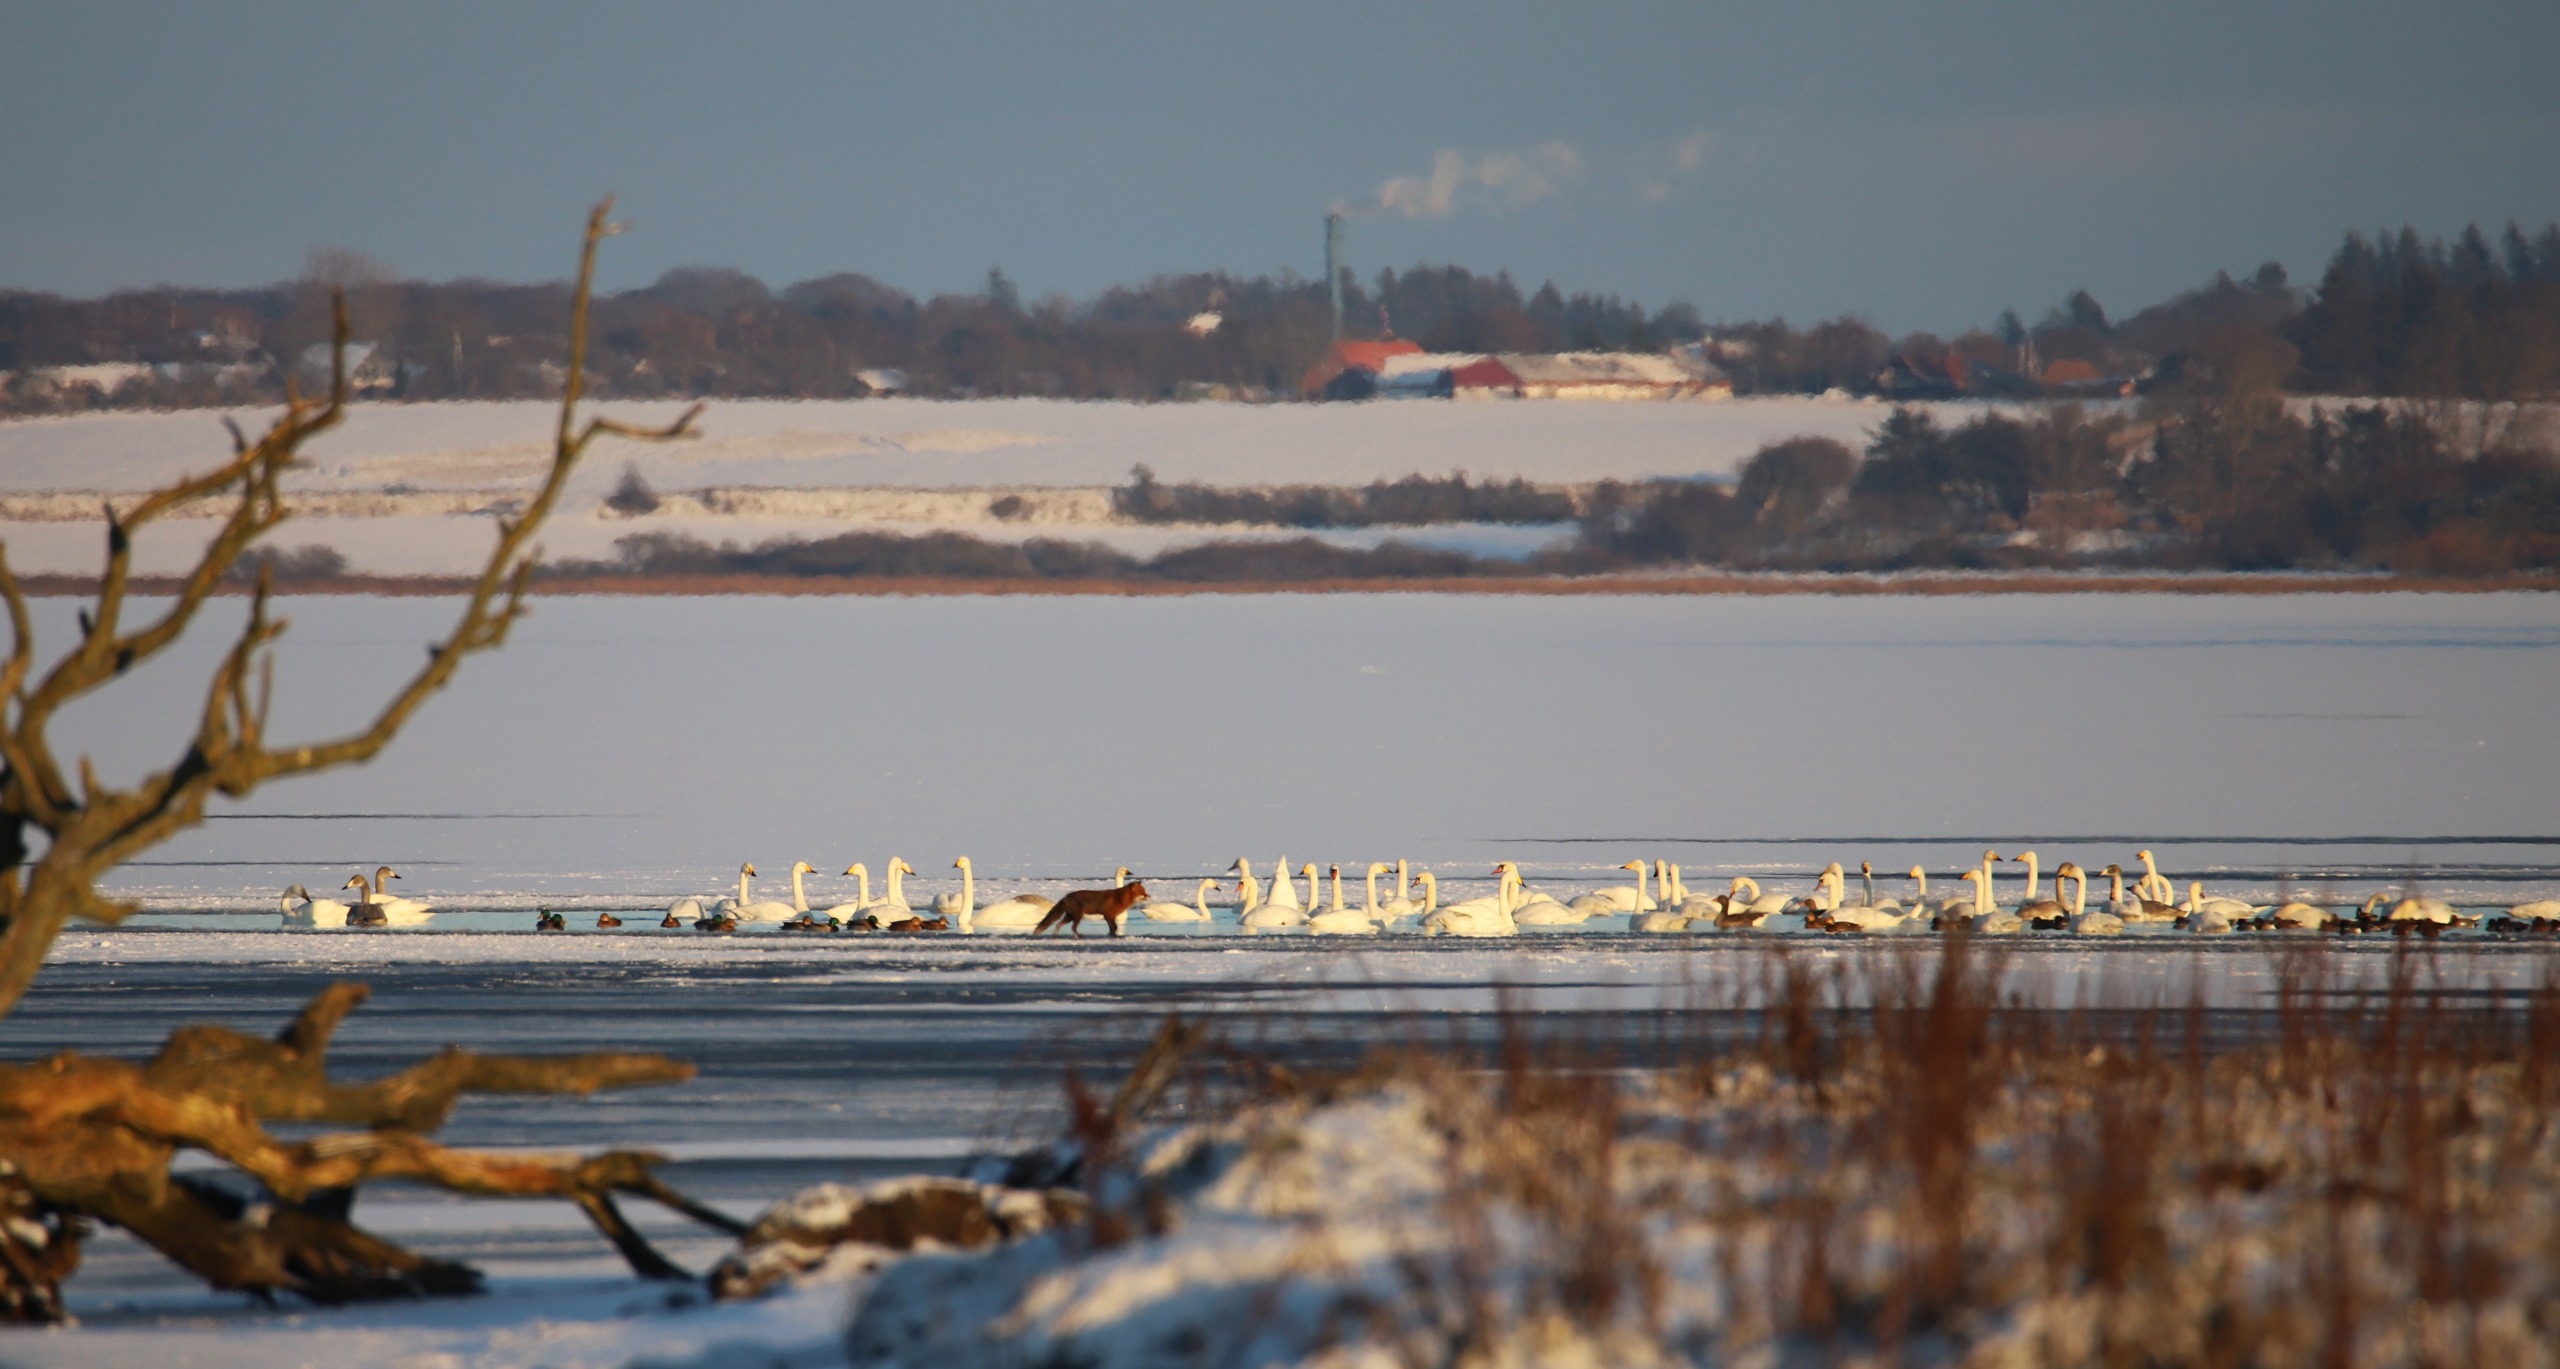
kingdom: Animalia
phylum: Chordata
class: Mammalia
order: Carnivora
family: Canidae
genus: Vulpes
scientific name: Vulpes vulpes
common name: Ræv
